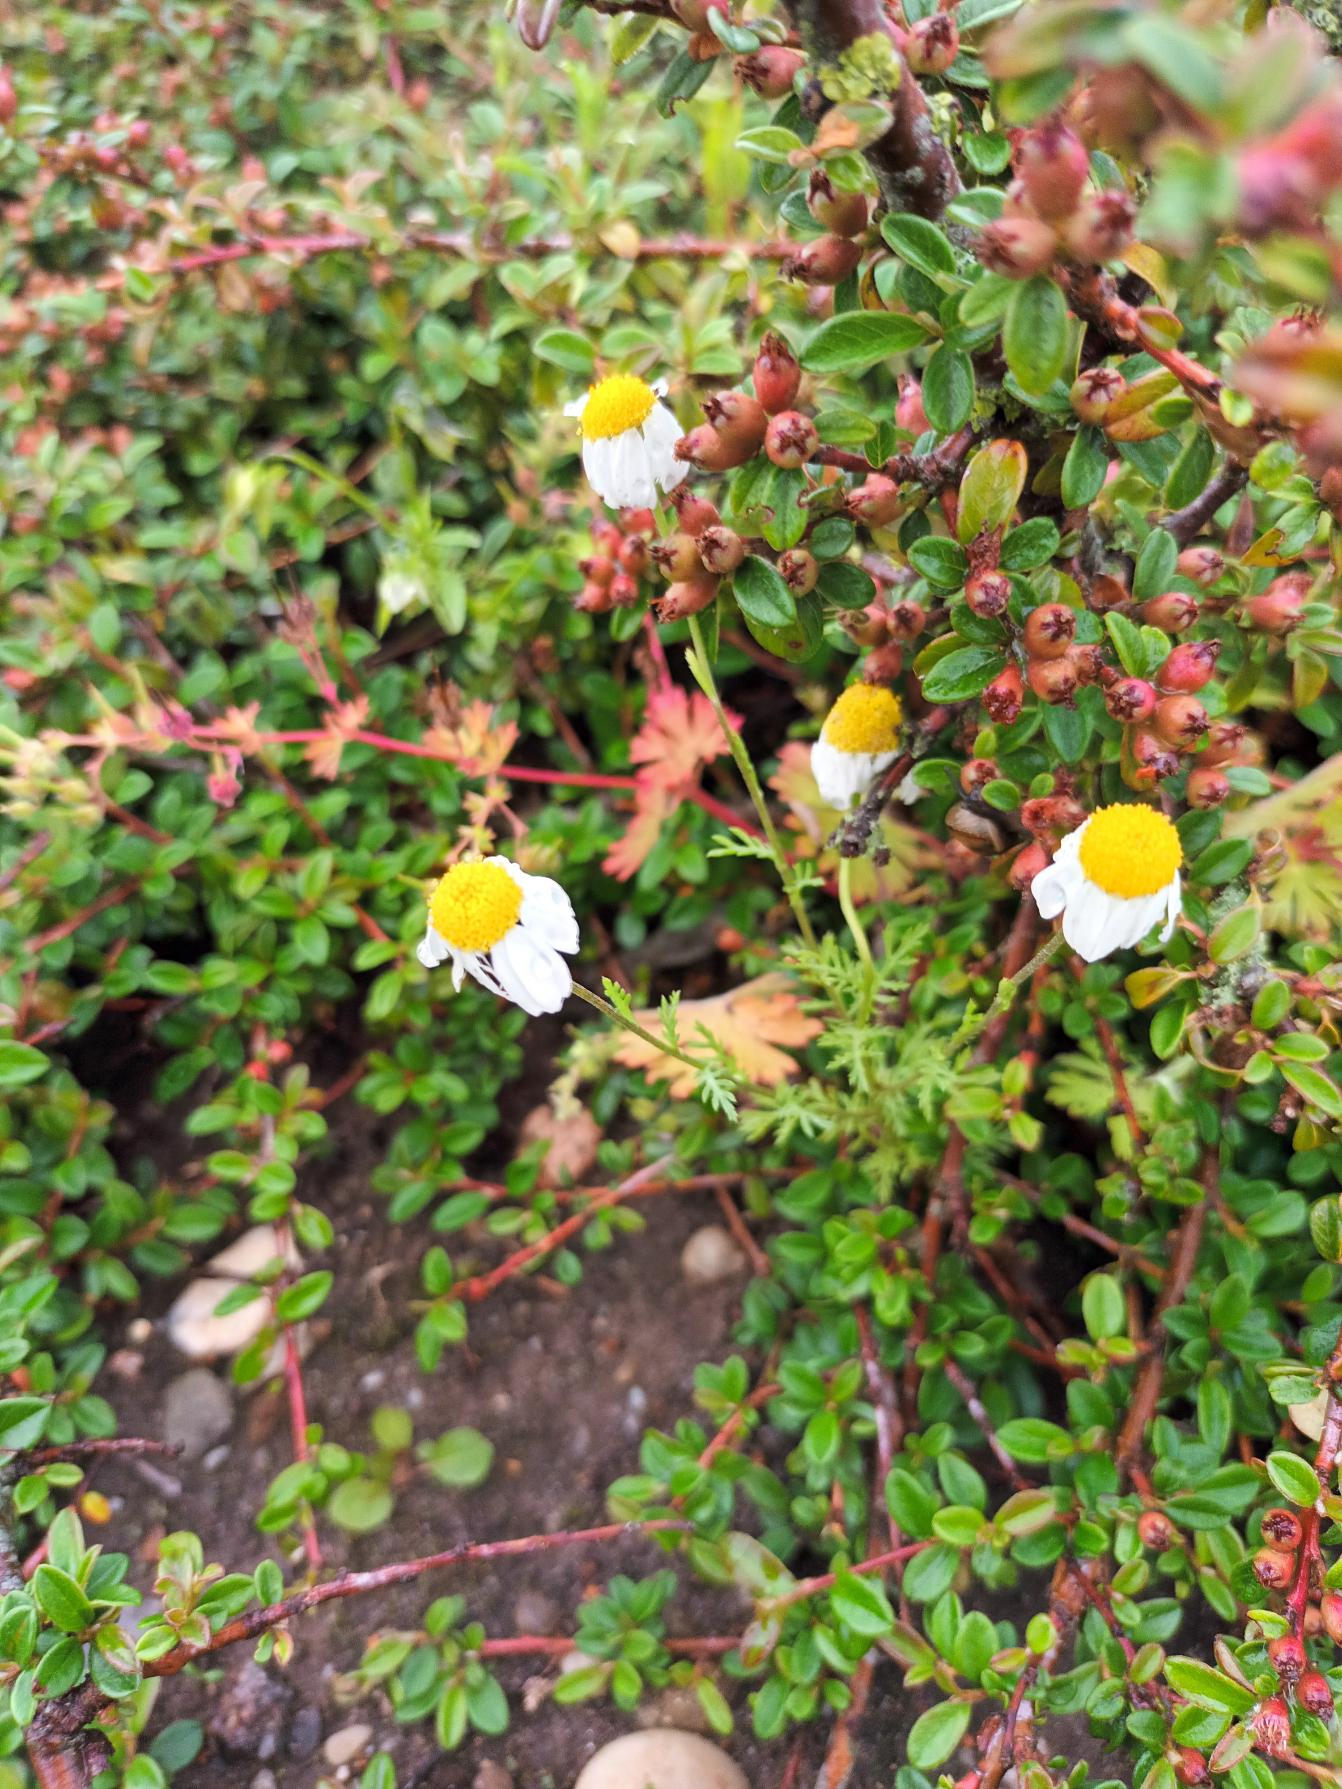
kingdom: Plantae
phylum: Tracheophyta
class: Magnoliopsida
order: Asterales
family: Asteraceae
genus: Anthemis
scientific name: Anthemis arvensis
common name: Ager-gåseurt
